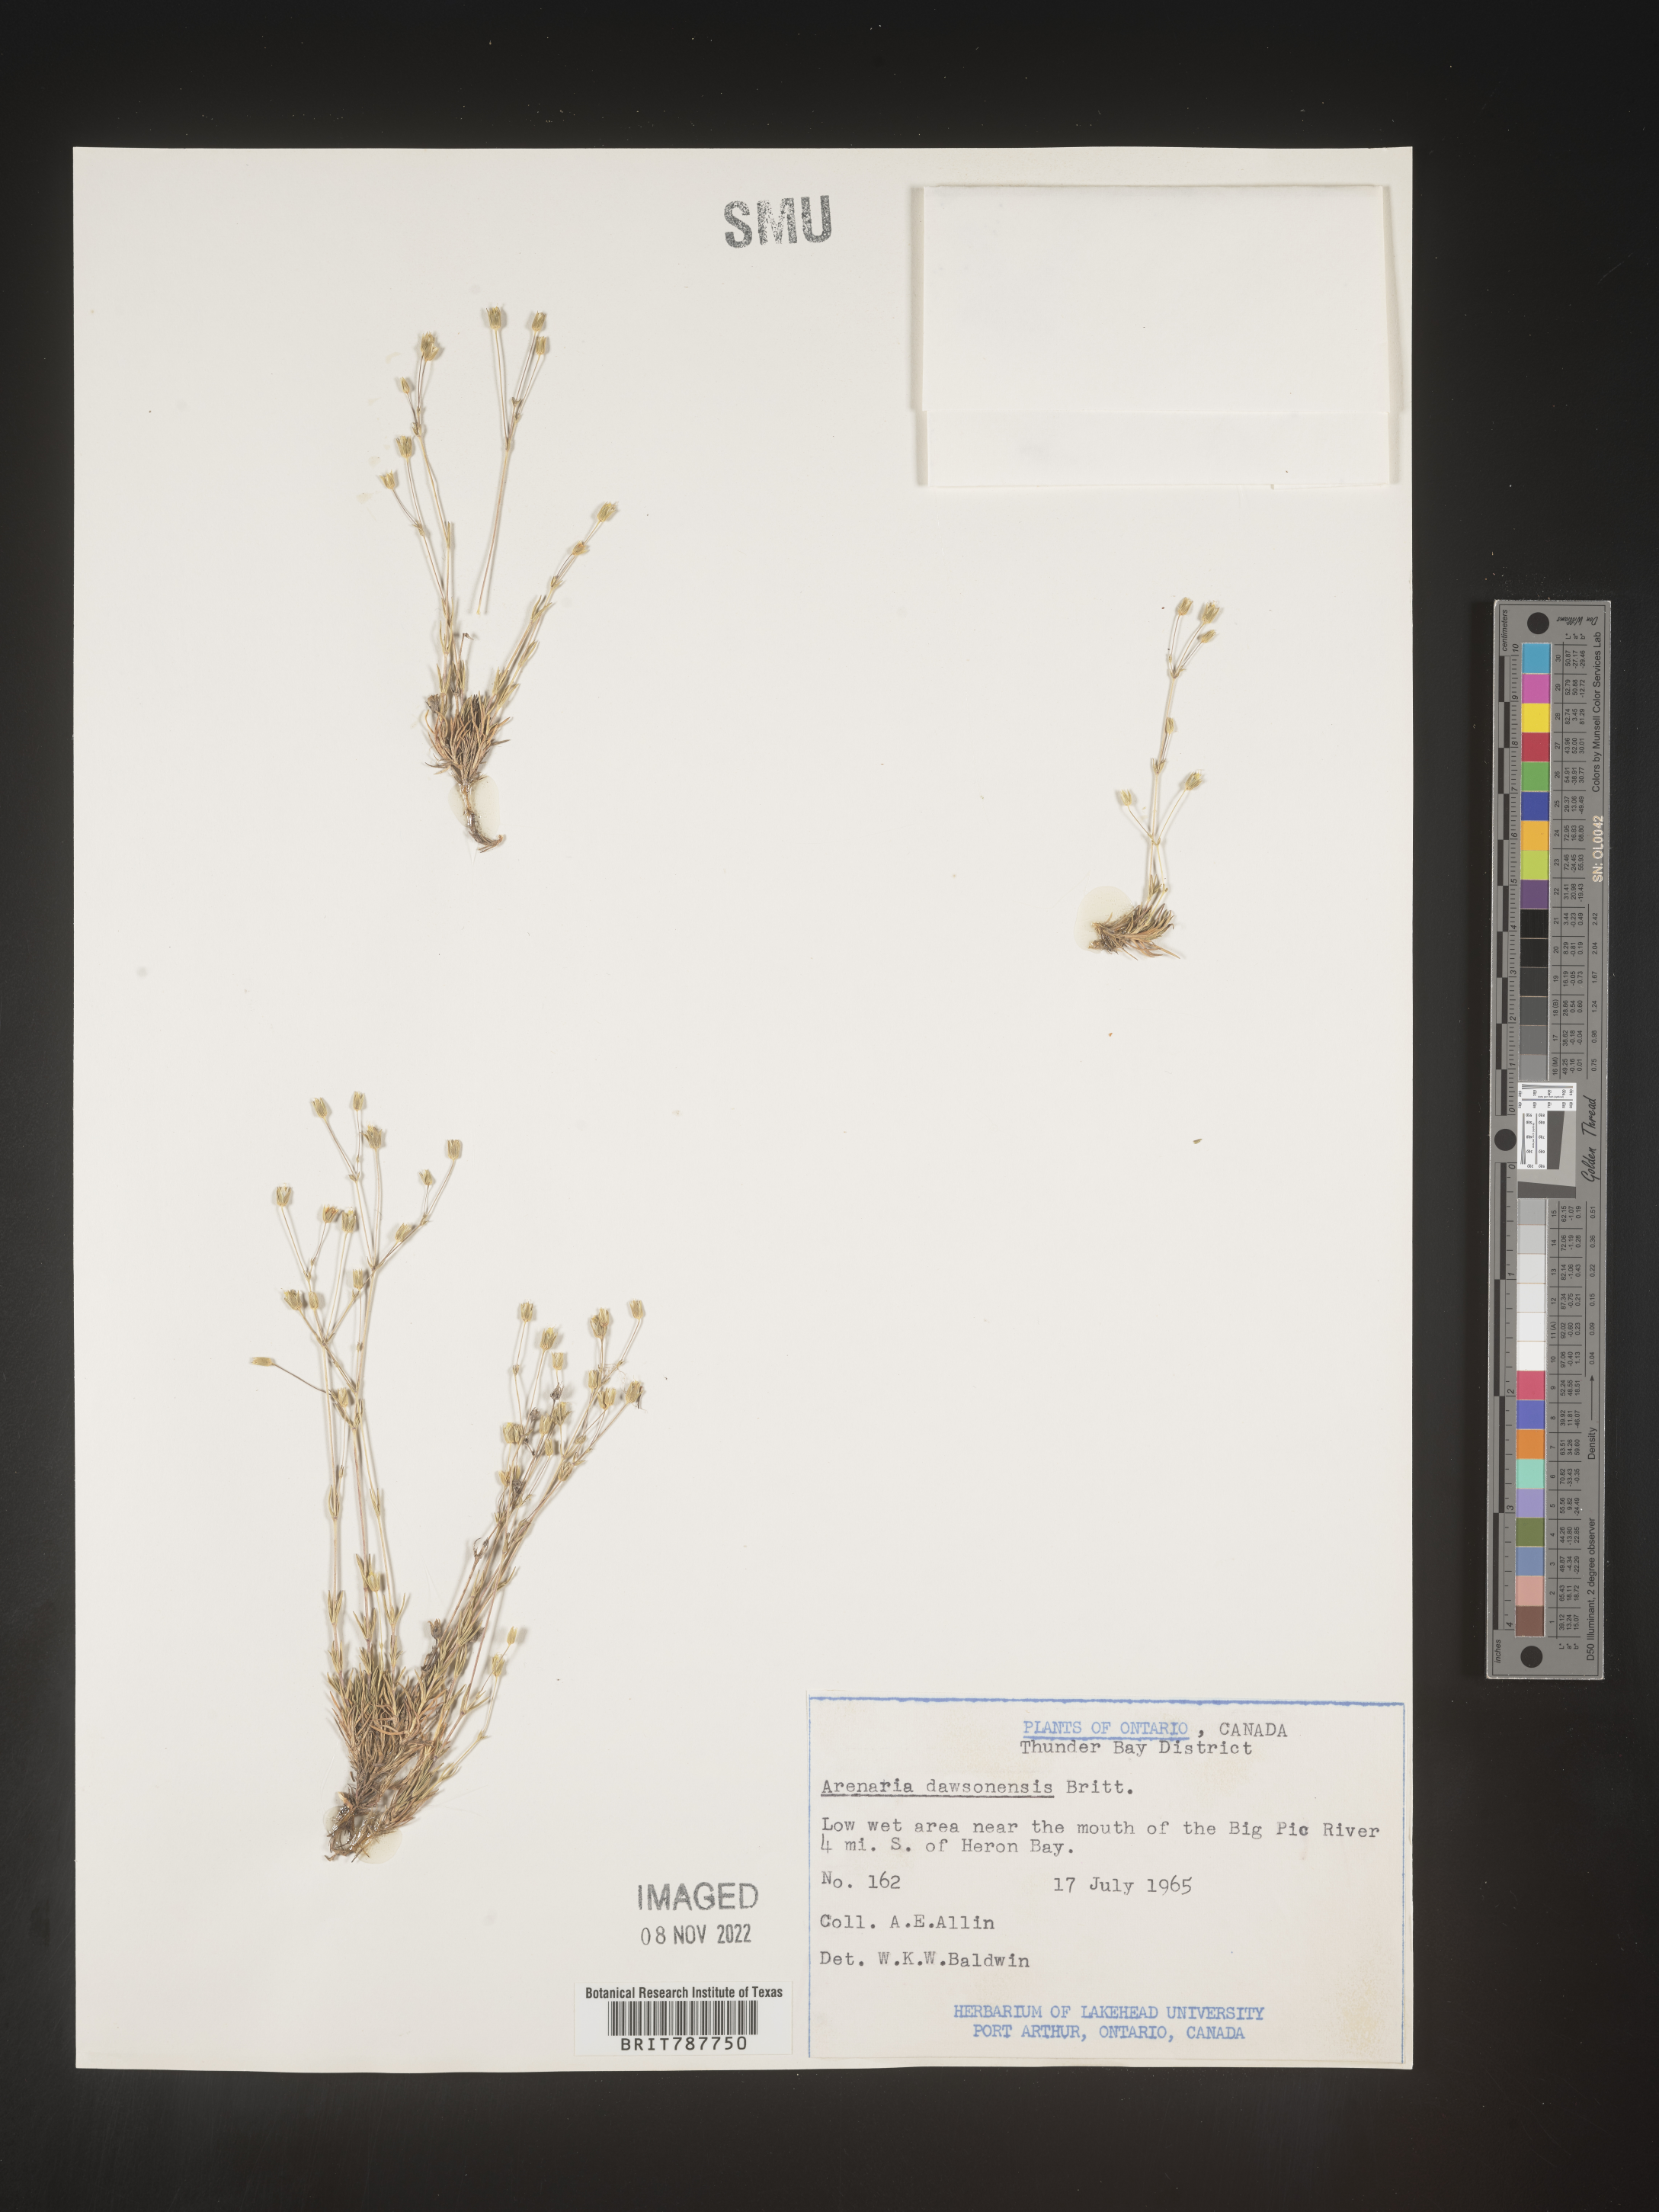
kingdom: Plantae
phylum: Tracheophyta
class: Magnoliopsida
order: Caryophyllales
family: Caryophyllaceae
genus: Arenaria
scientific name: Arenaria
